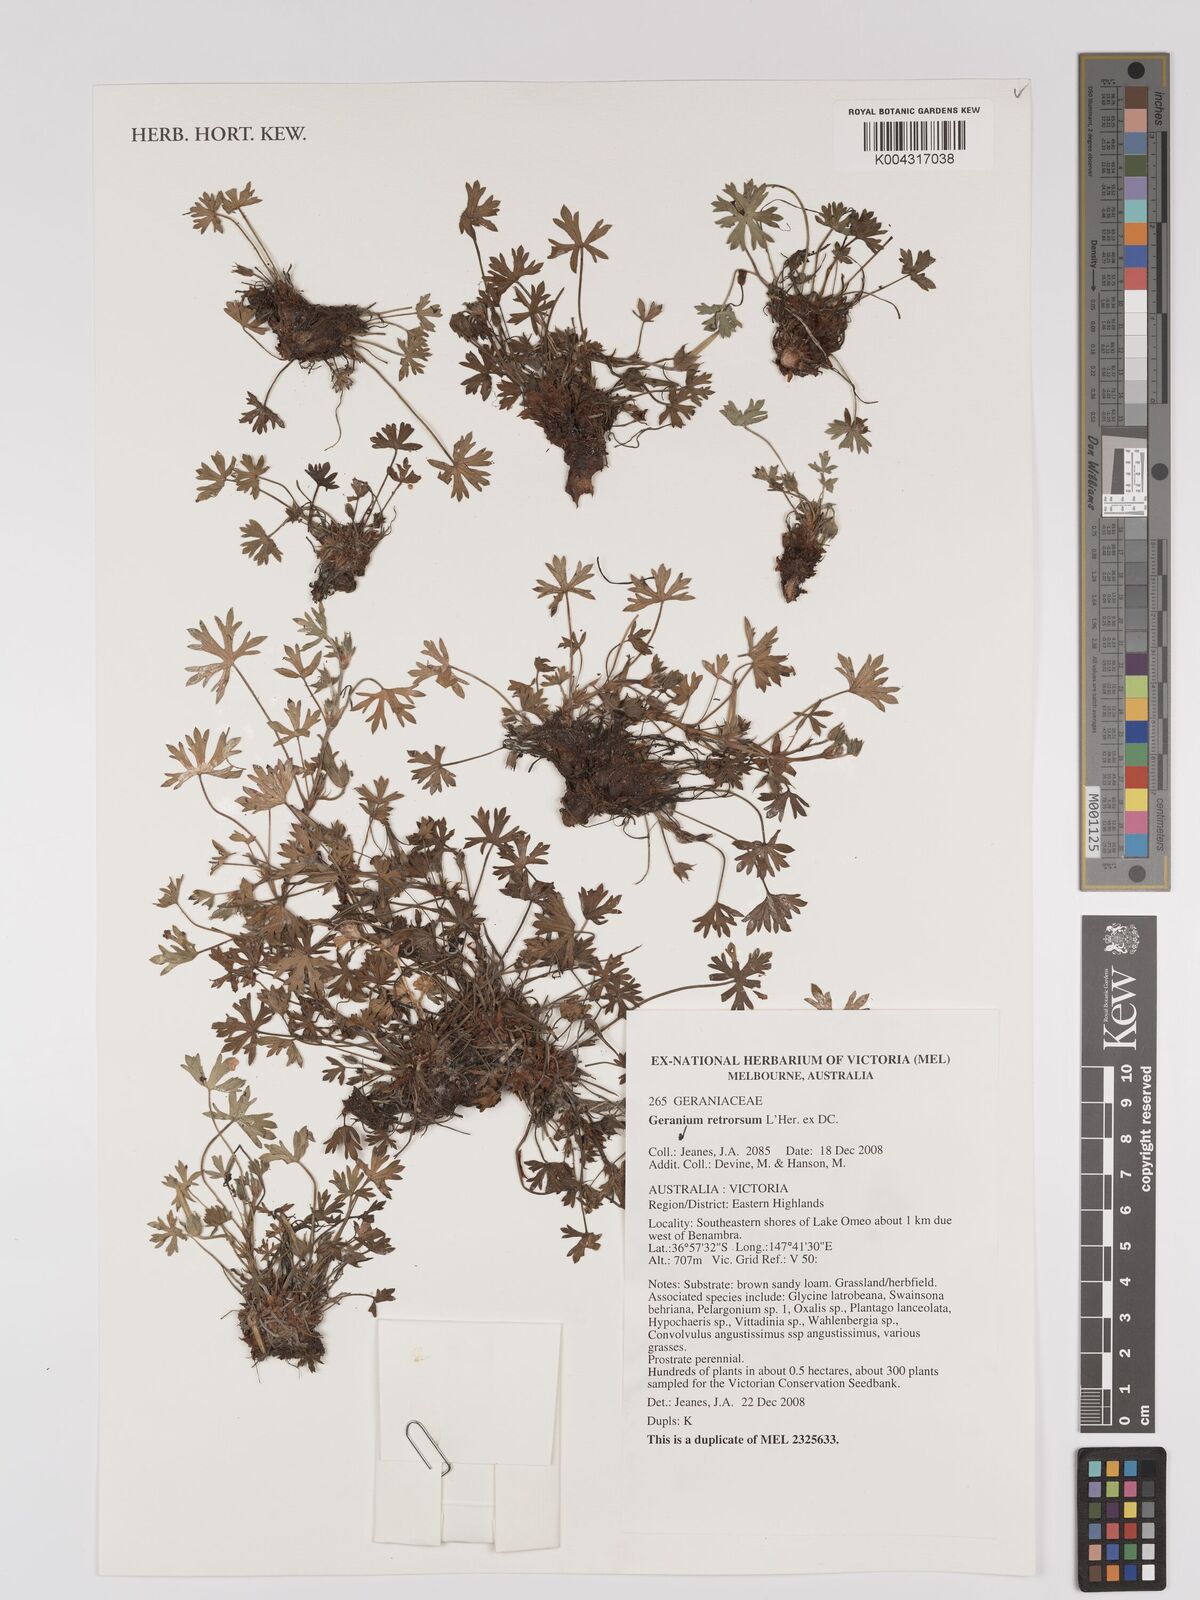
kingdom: Plantae
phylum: Tracheophyta
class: Magnoliopsida
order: Geraniales
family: Geraniaceae
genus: Geranium
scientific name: Geranium retrorsum
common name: New zealand geranium
